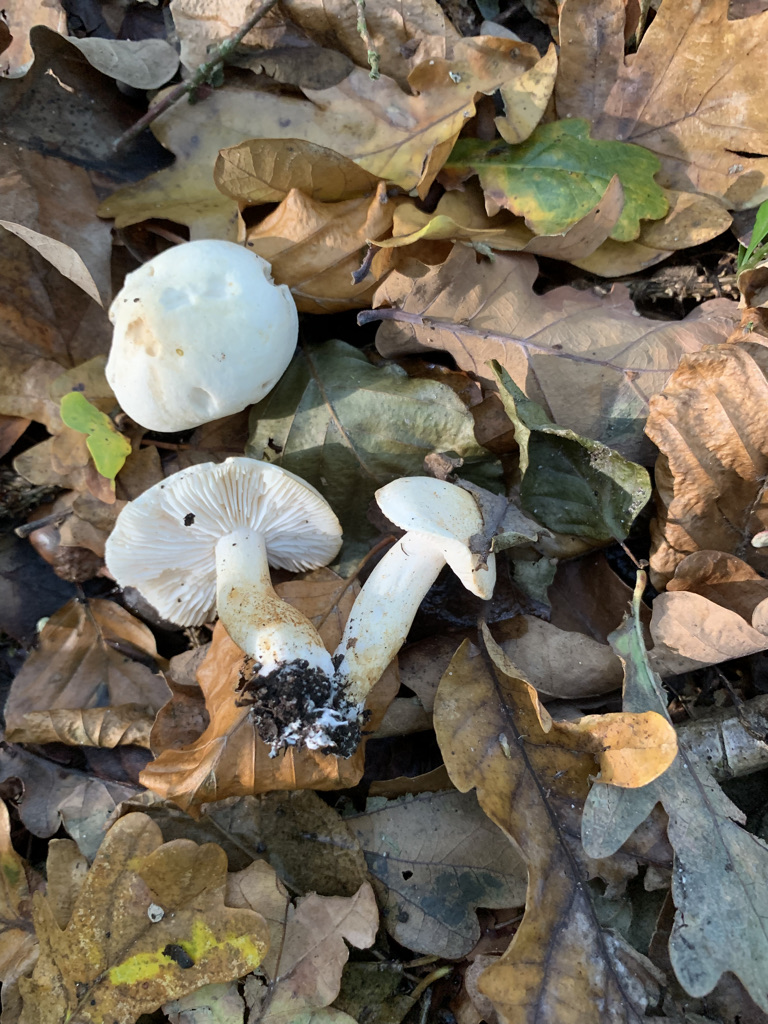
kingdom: Fungi
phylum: Basidiomycota
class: Agaricomycetes
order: Agaricales
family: Tricholomataceae
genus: Tricholoma
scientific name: Tricholoma lascivum
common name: stinkende ridderhat
